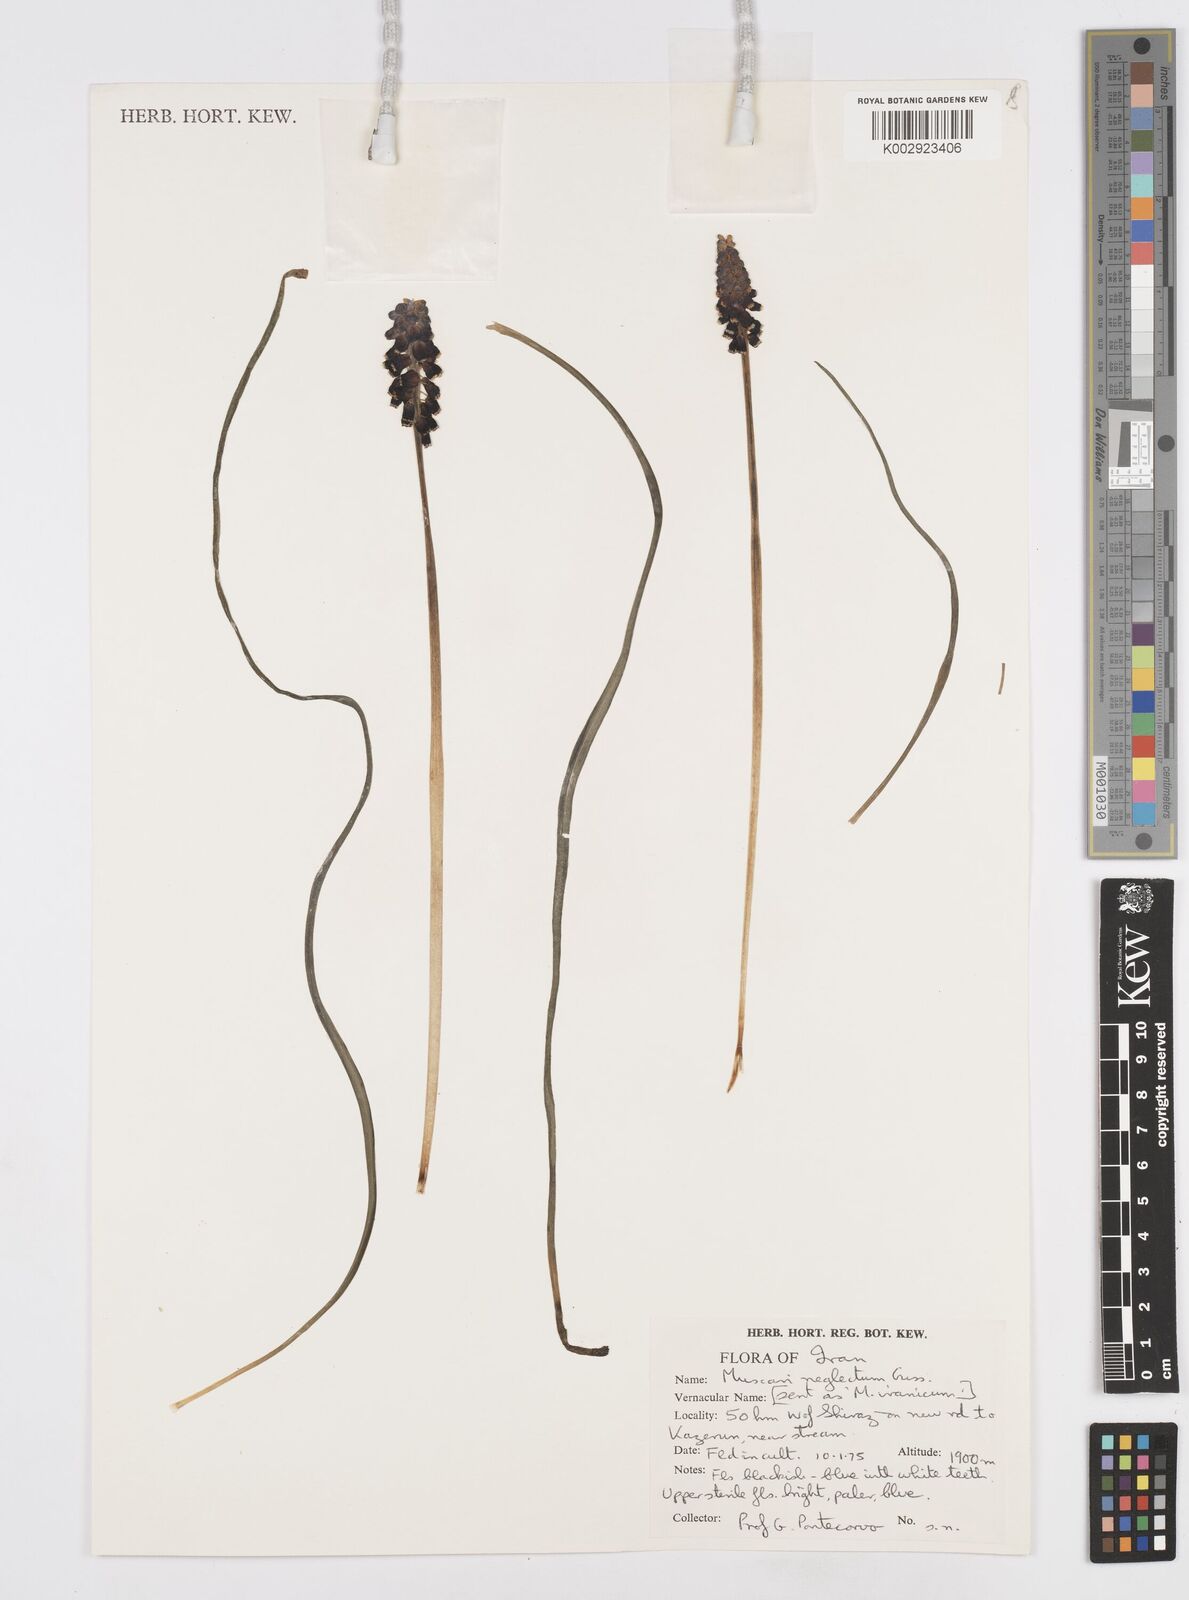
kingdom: Plantae
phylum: Tracheophyta
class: Liliopsida
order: Asparagales
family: Asparagaceae
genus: Muscari
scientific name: Muscari neglectum
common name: Grape-hyacinth
